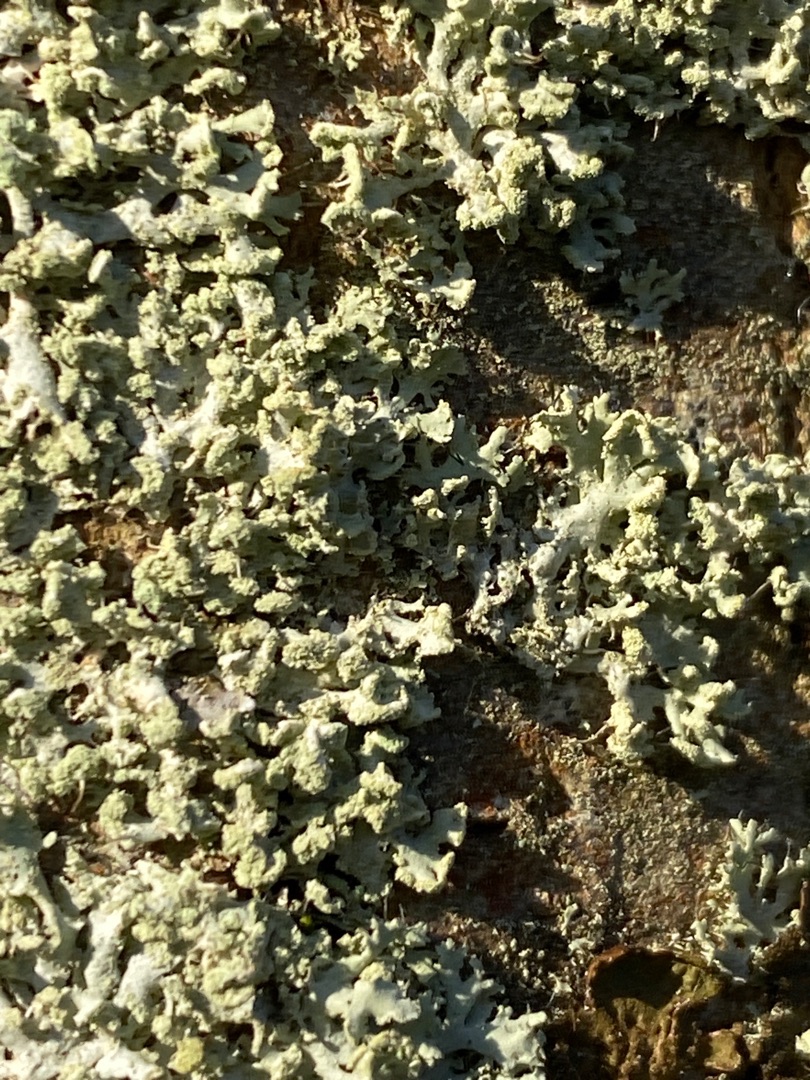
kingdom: Fungi
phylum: Ascomycota
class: Lecanoromycetes
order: Caliciales
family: Physciaceae
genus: Physcia
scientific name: Physcia tenella
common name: Spæd rosetlav
